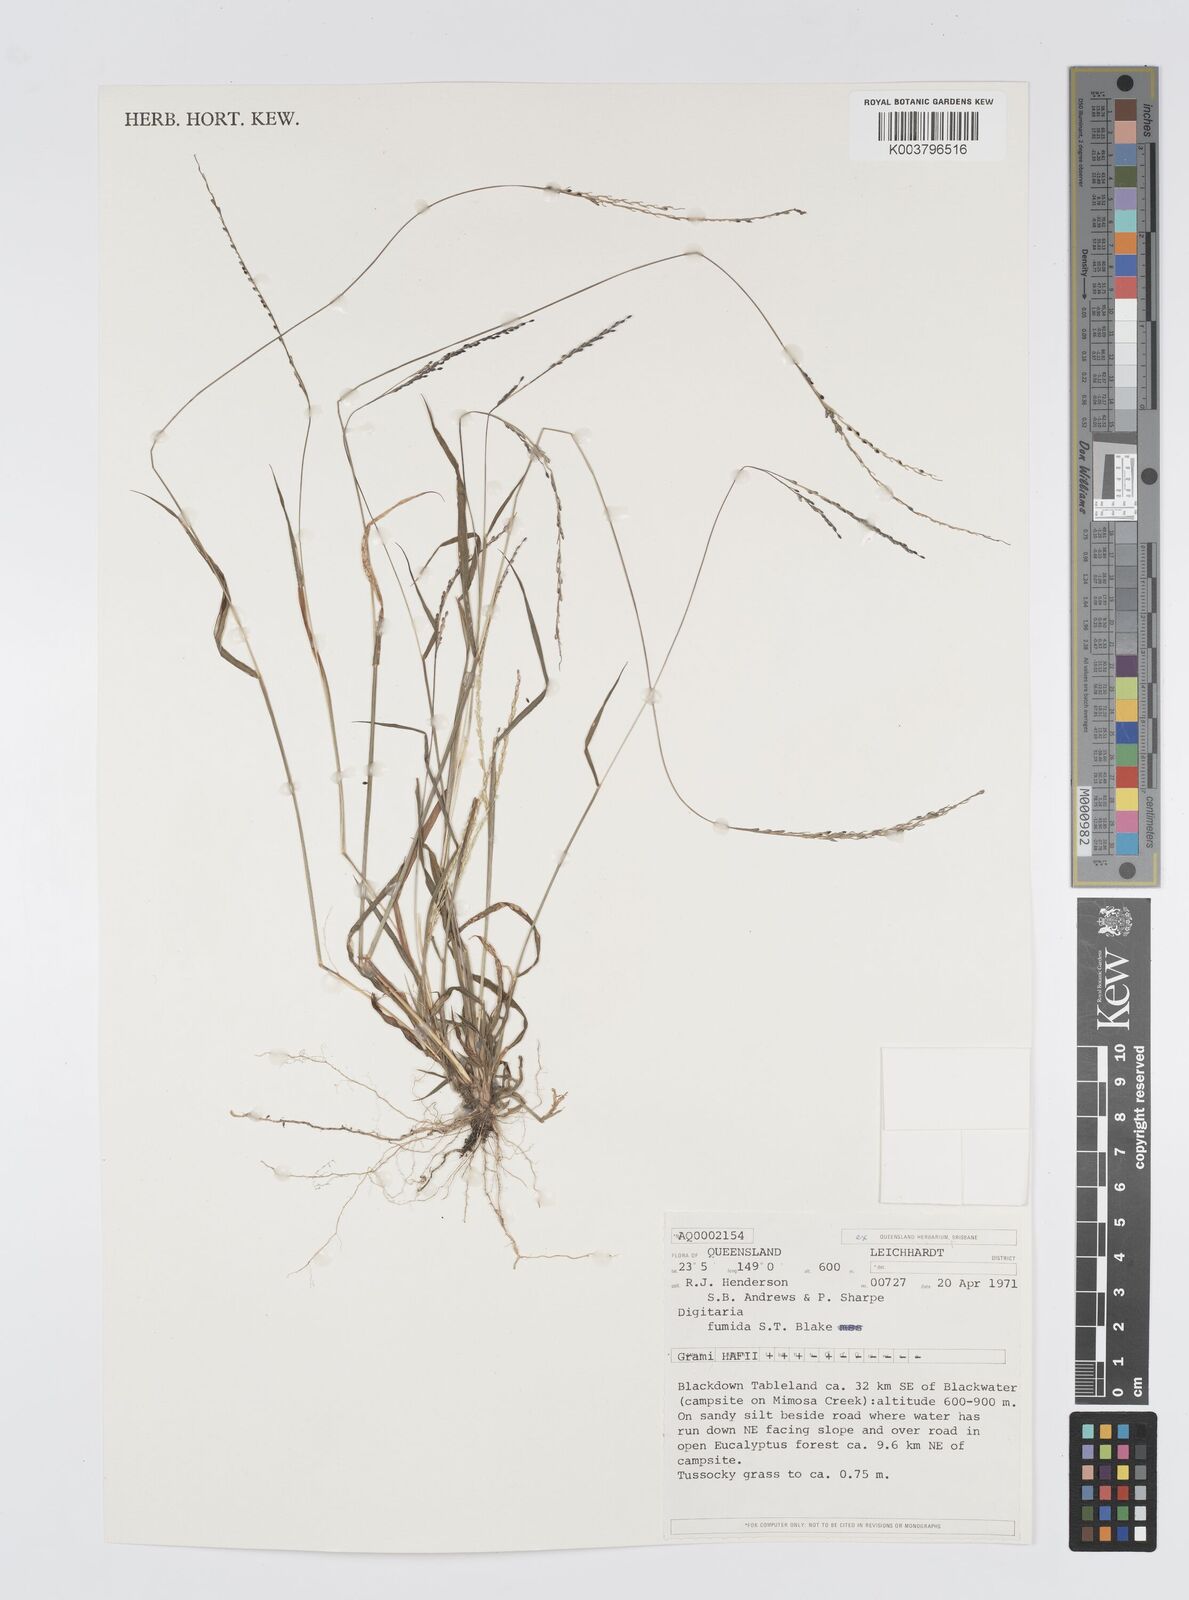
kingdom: Plantae
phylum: Tracheophyta
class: Liliopsida
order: Poales
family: Poaceae
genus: Digitaria
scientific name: Digitaria breviglumis
